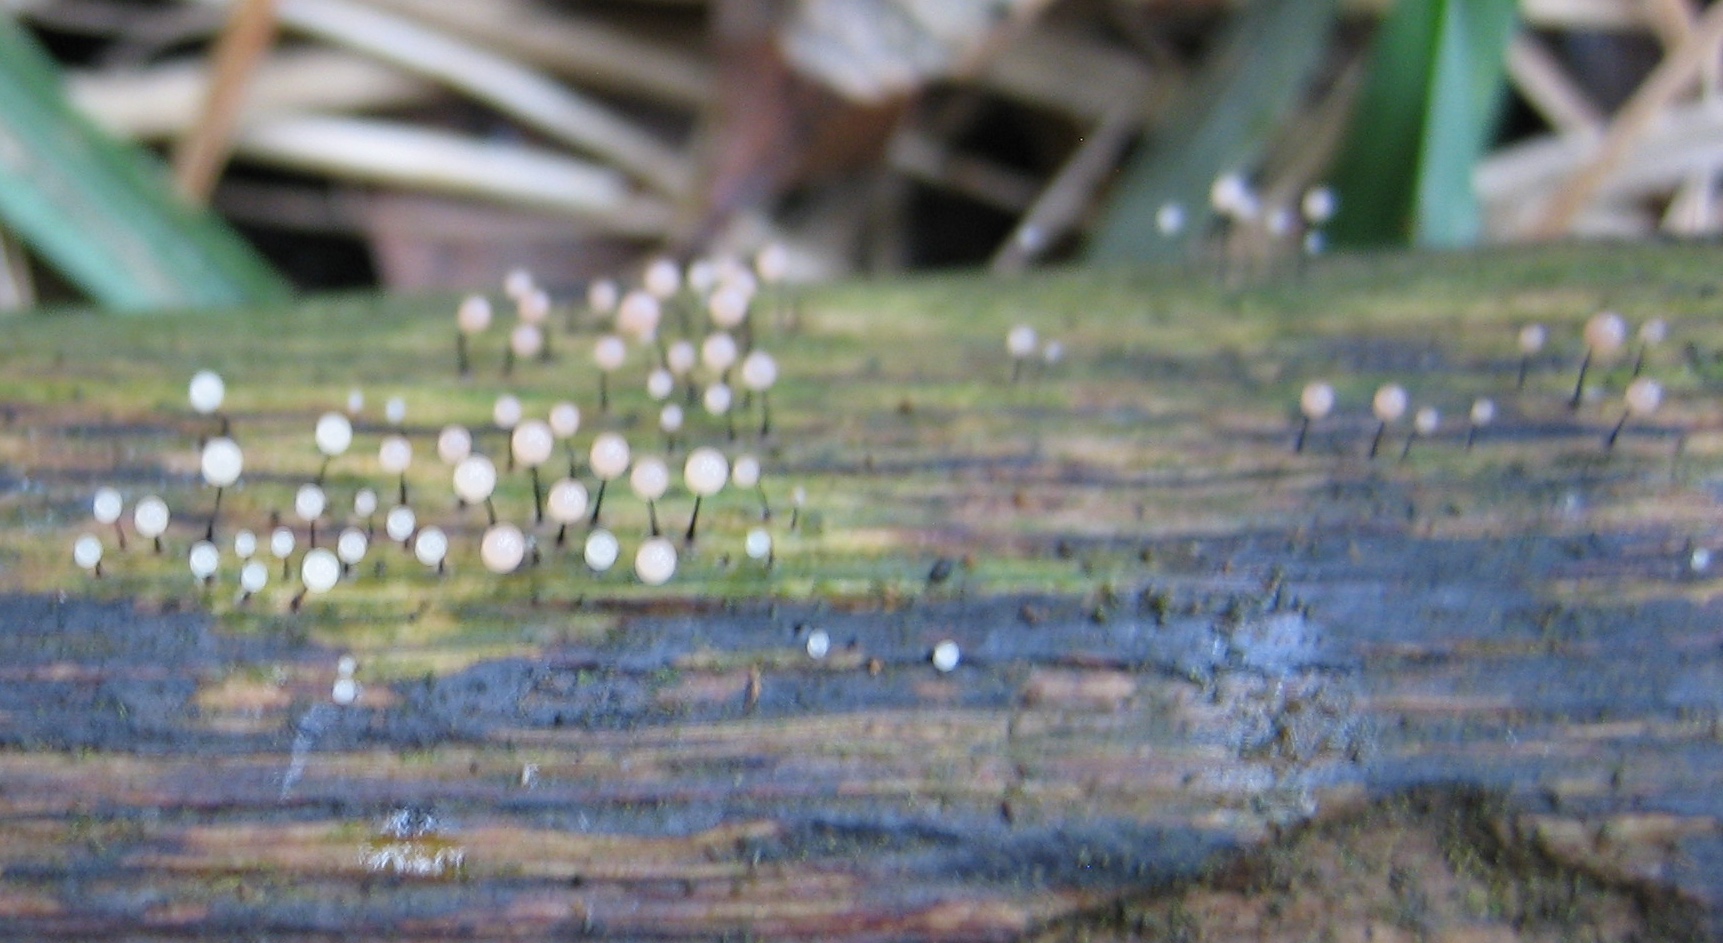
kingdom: Protozoa
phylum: Mycetozoa
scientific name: Mycetozoa
